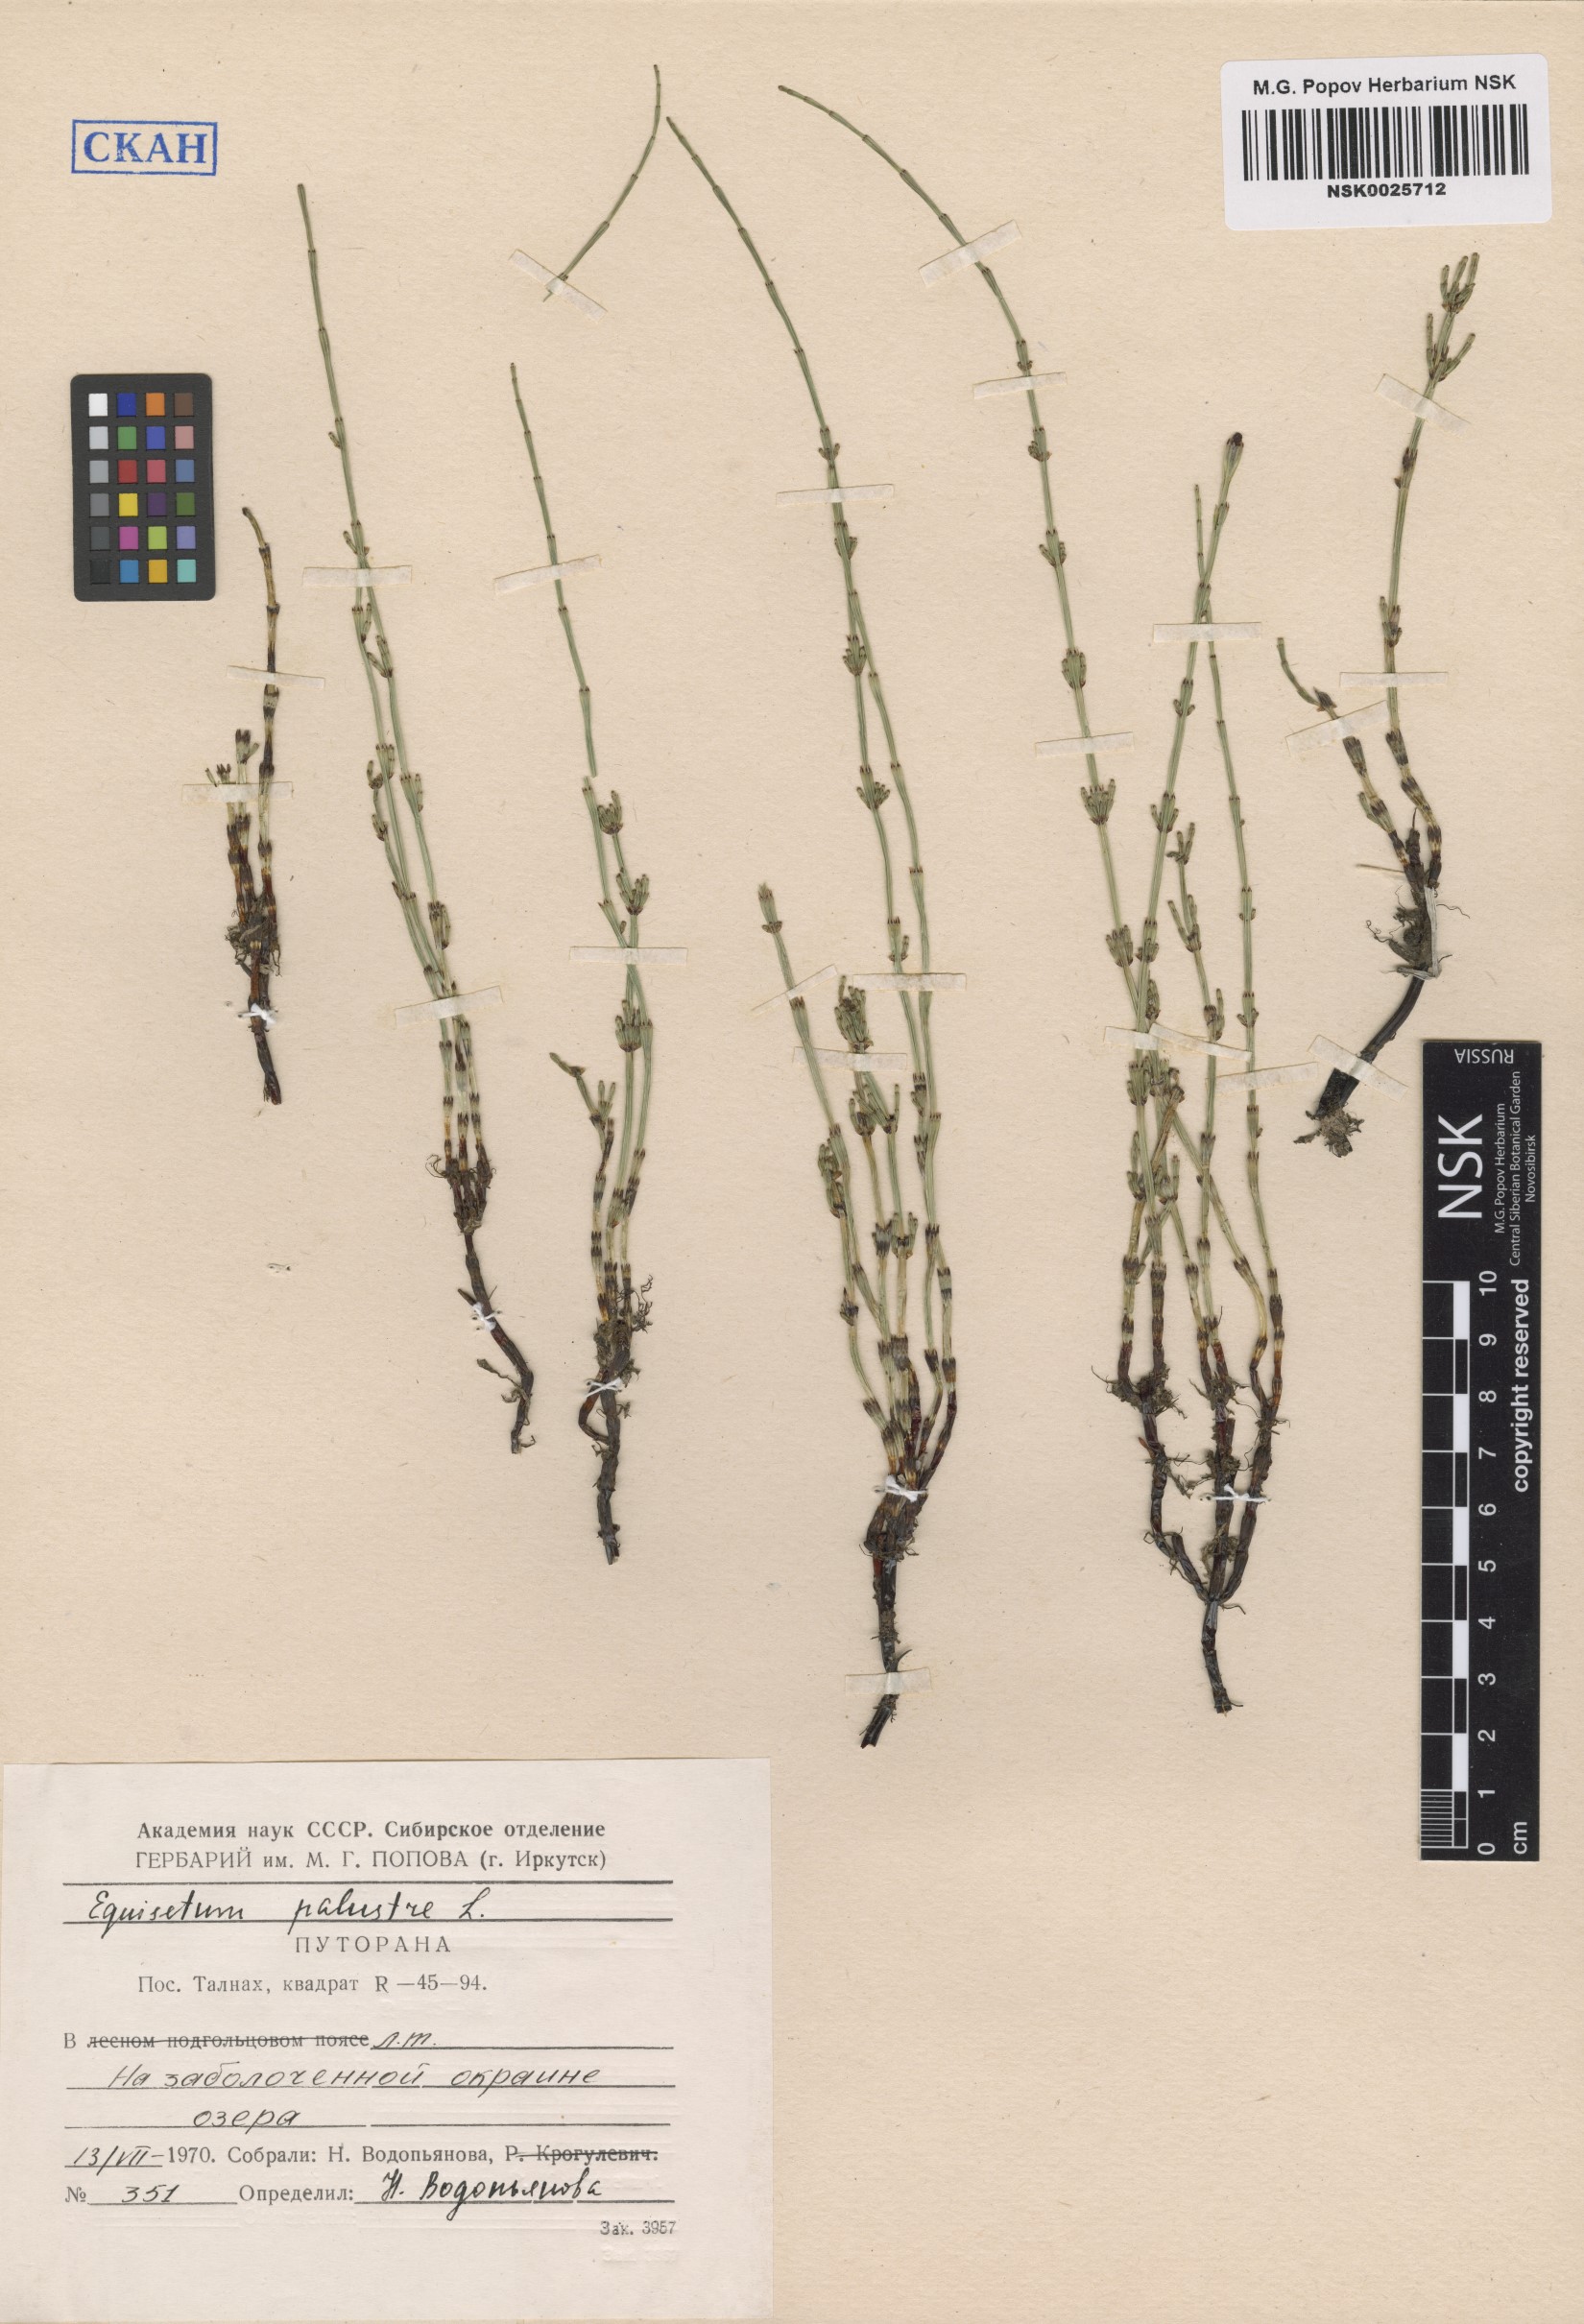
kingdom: Plantae
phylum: Tracheophyta
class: Polypodiopsida
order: Equisetales
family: Equisetaceae
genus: Equisetum
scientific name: Equisetum palustre
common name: Marsh horsetail
